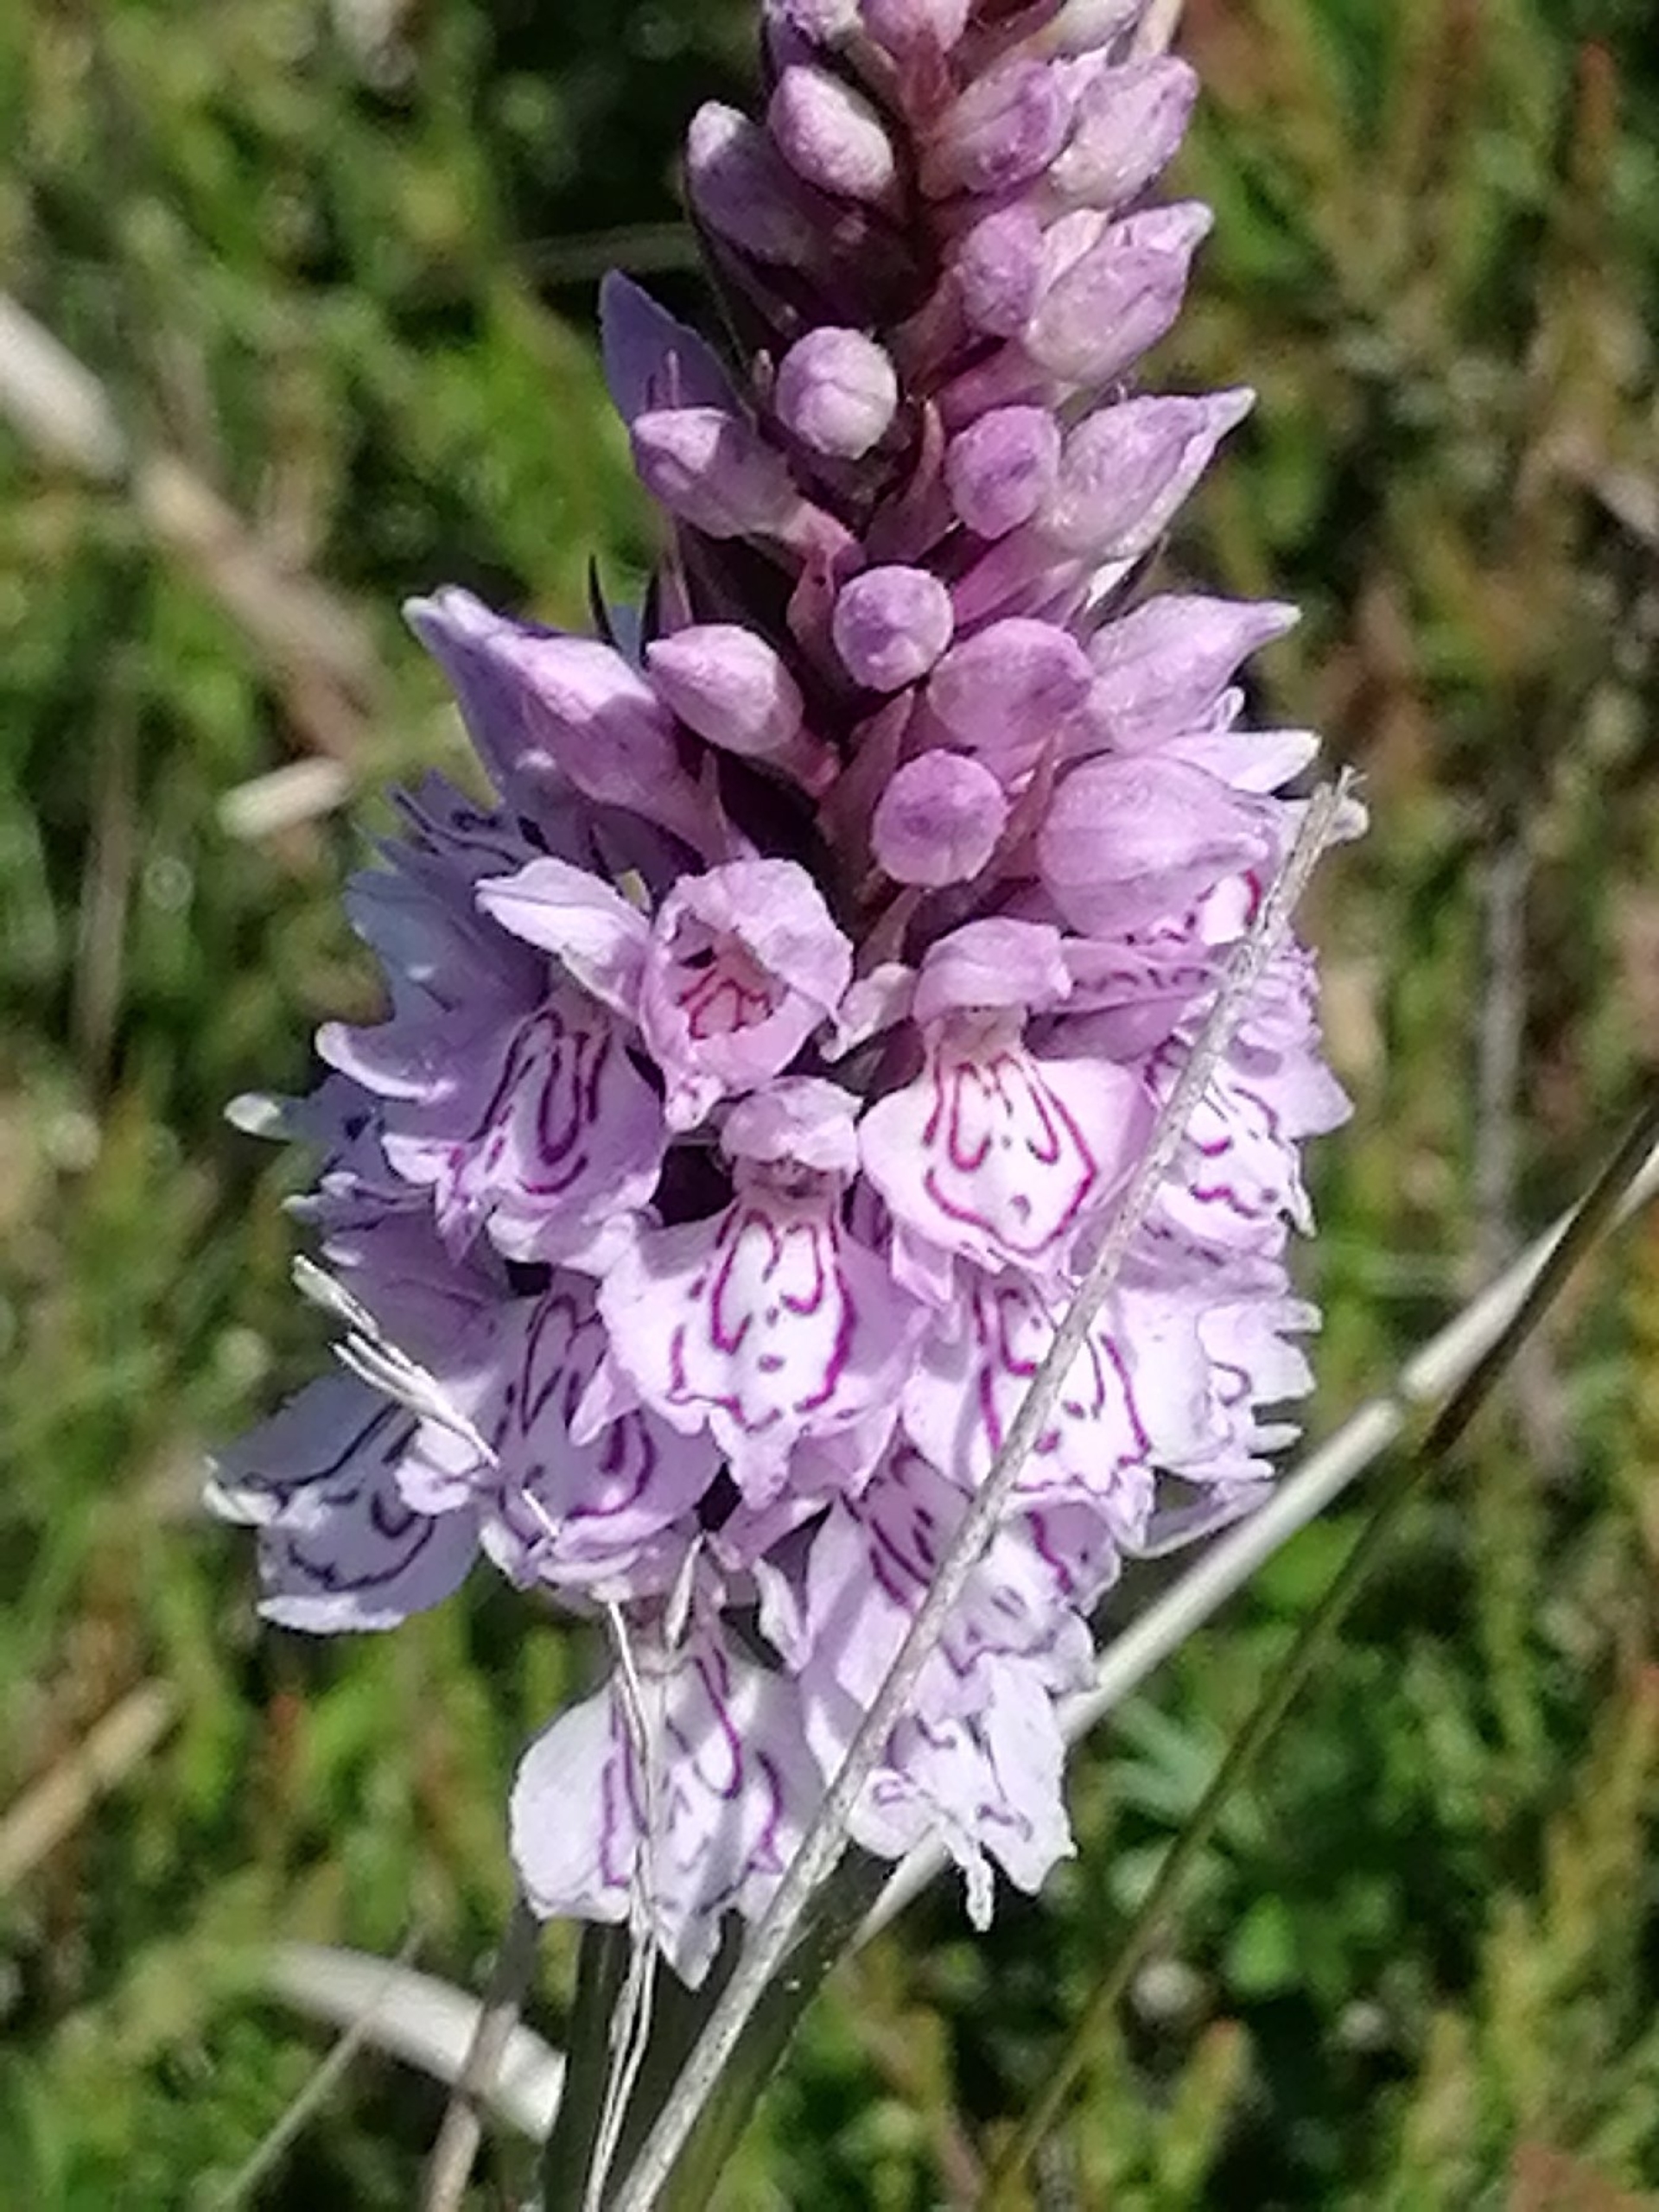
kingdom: Plantae
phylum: Tracheophyta
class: Liliopsida
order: Asparagales
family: Orchidaceae
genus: Dactylorhiza
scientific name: Dactylorhiza maculata
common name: Plettet gøgeurt
